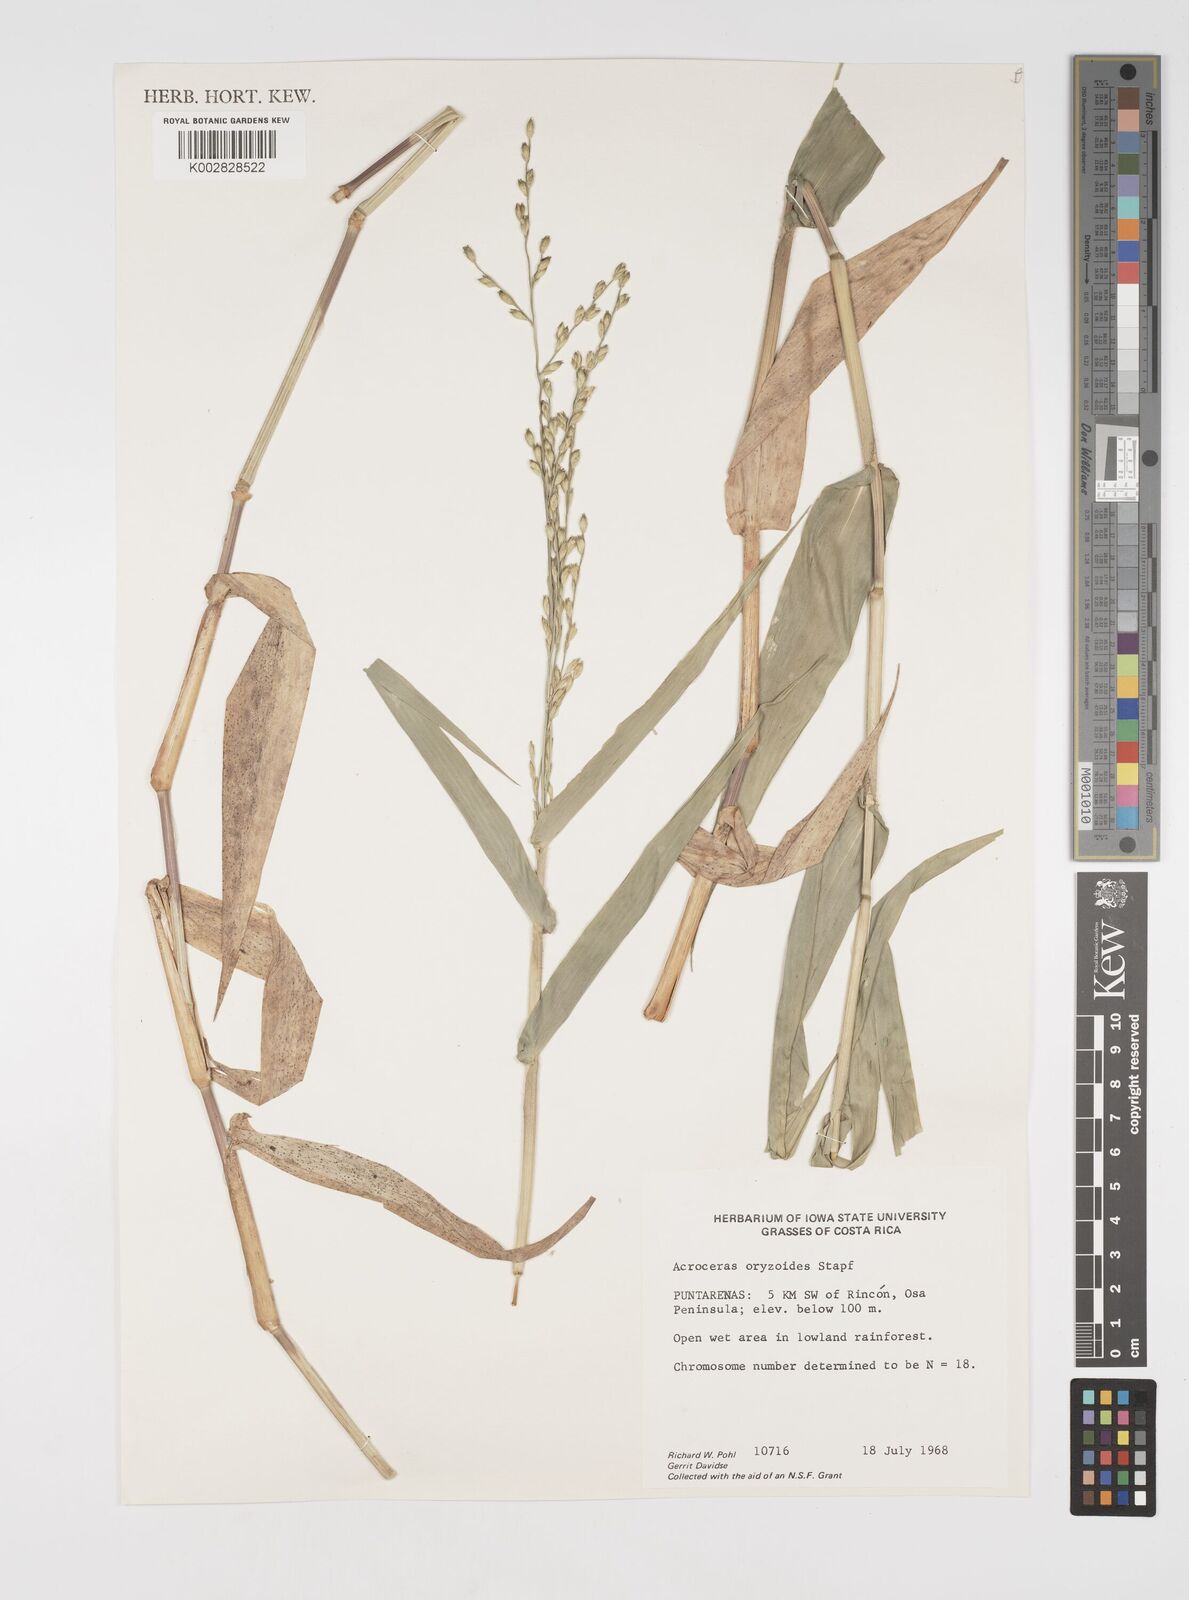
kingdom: Plantae
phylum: Tracheophyta
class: Liliopsida
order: Poales
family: Poaceae
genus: Acroceras
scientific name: Acroceras zizanioides
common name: Oat grass
